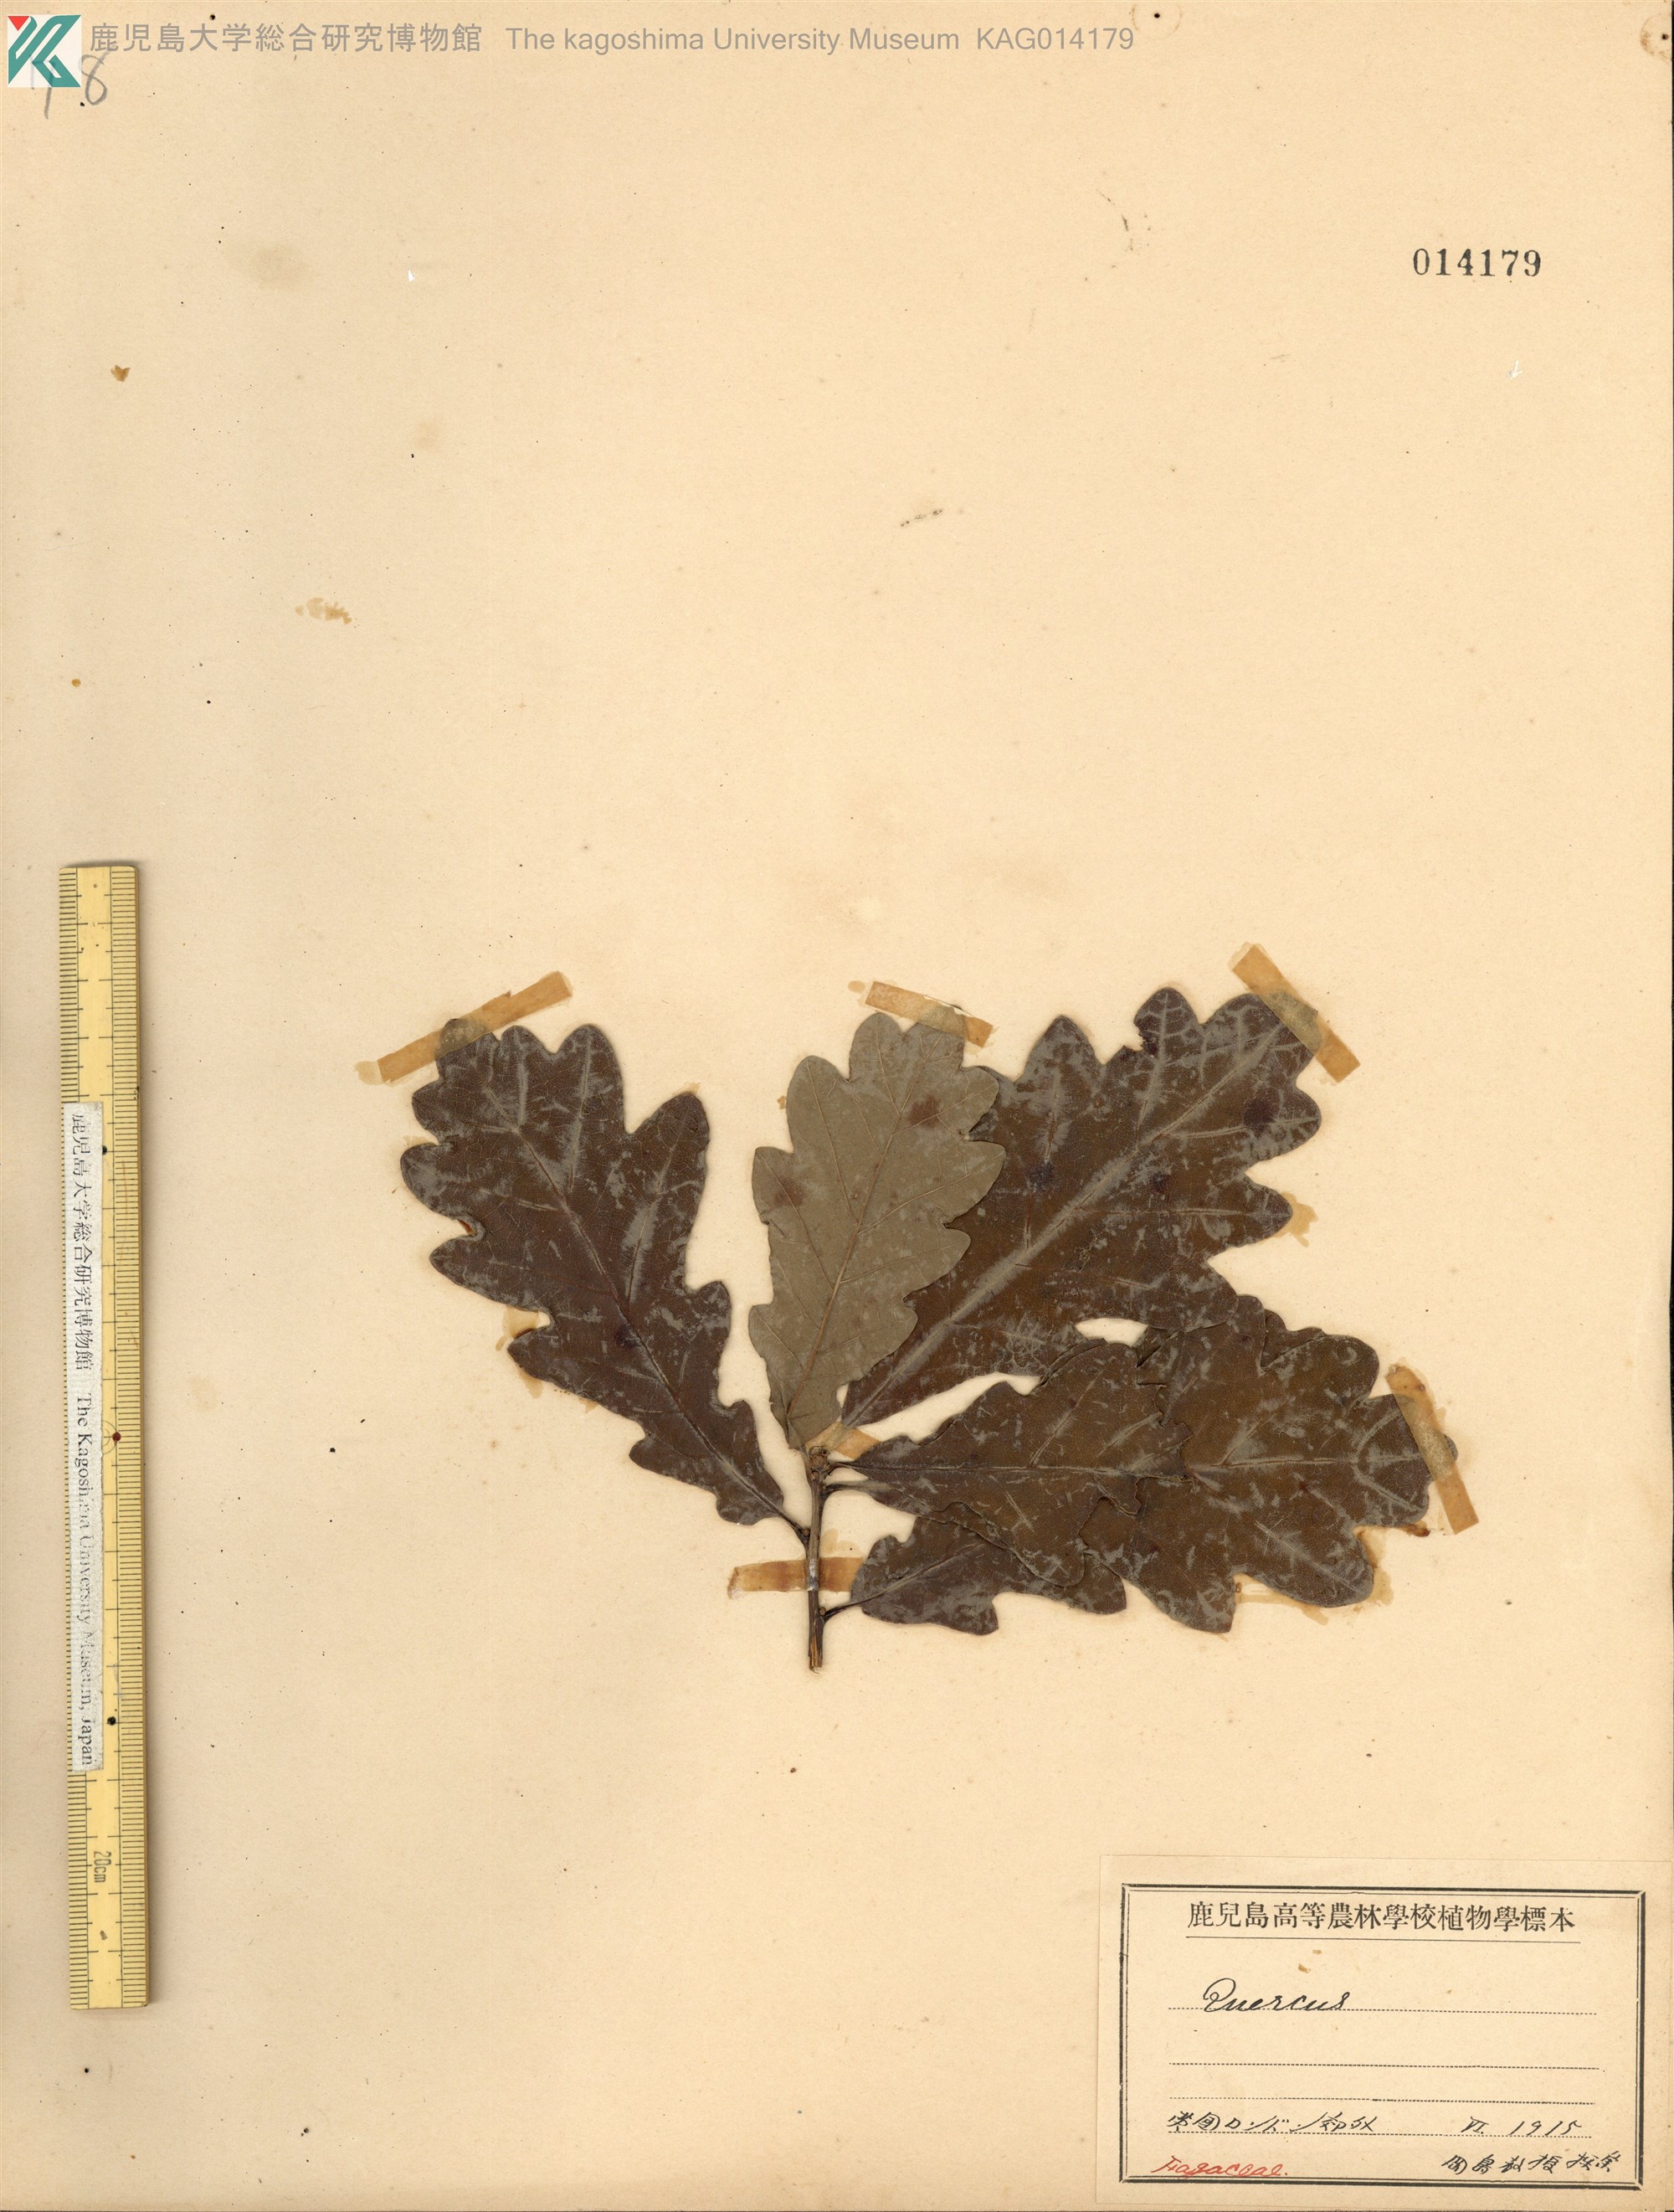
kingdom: Plantae
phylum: Tracheophyta
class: Magnoliopsida
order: Fagales
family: Fagaceae
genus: Quercus
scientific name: Quercus robur
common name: Pedunculate oak
